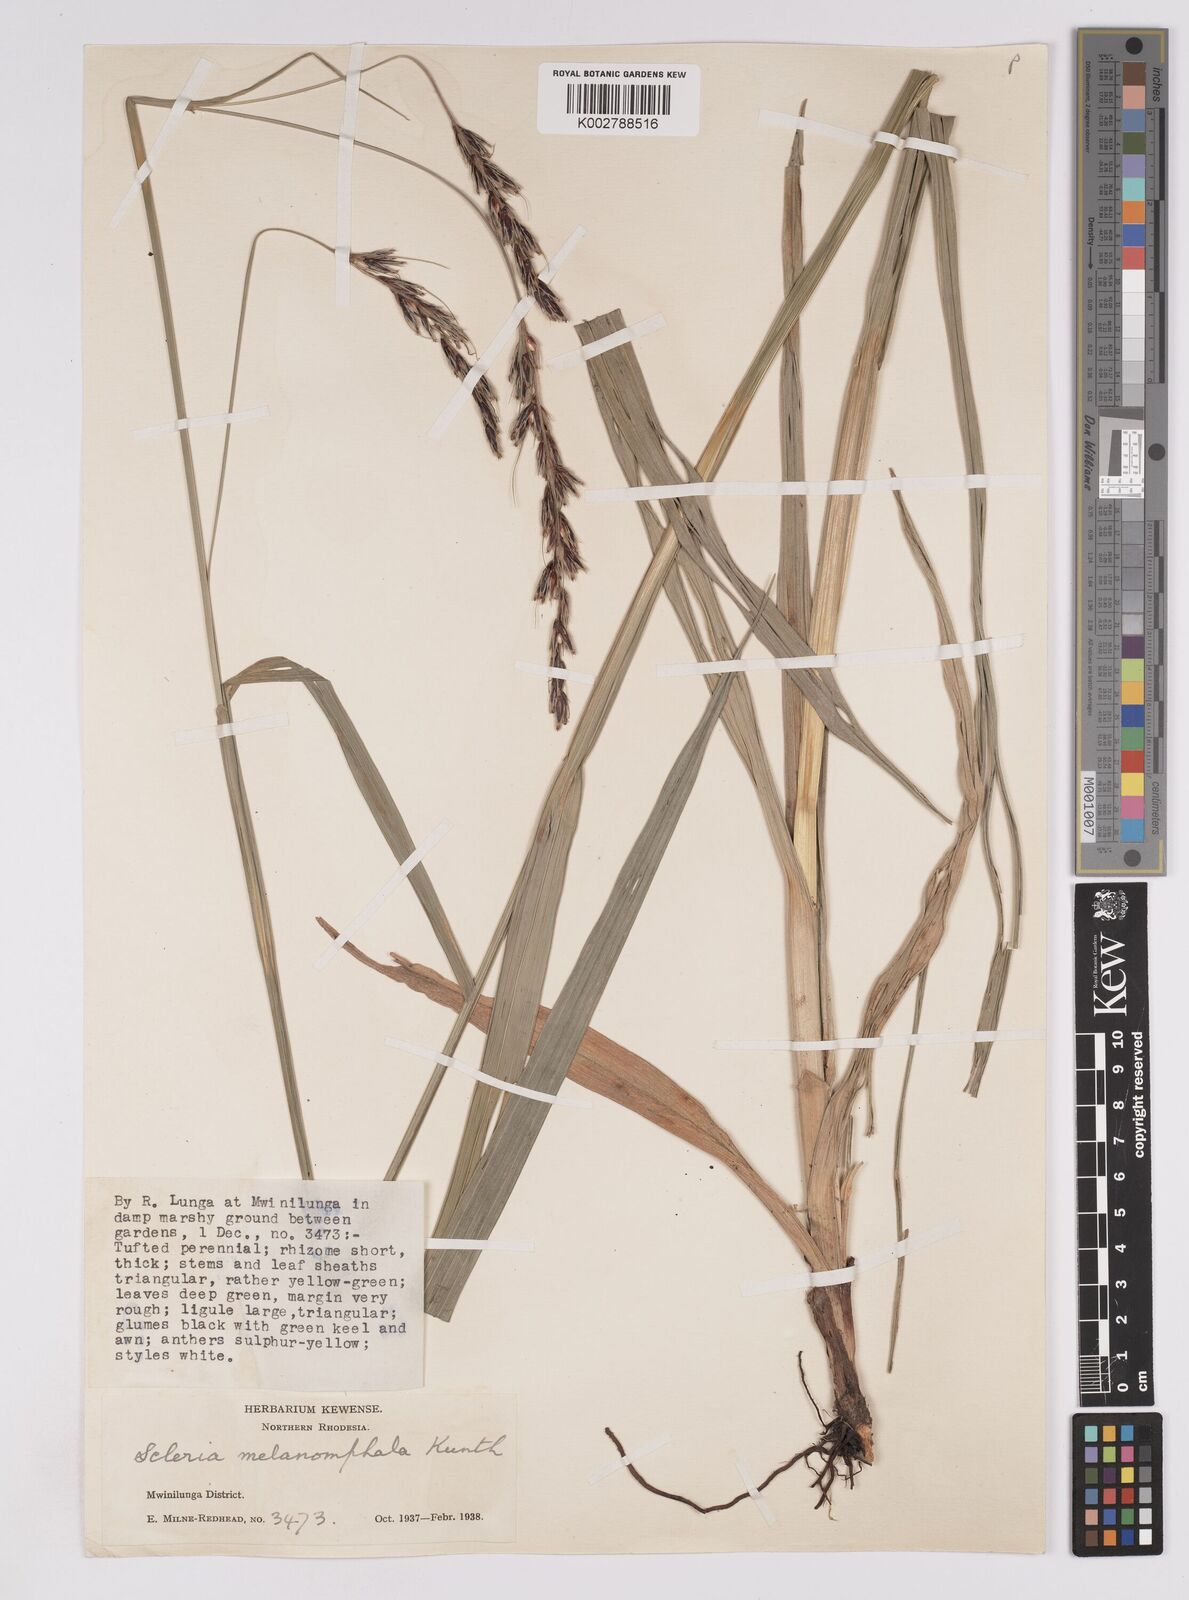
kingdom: Plantae
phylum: Tracheophyta
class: Liliopsida
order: Poales
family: Cyperaceae
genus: Scleria
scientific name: Scleria melanomphala
